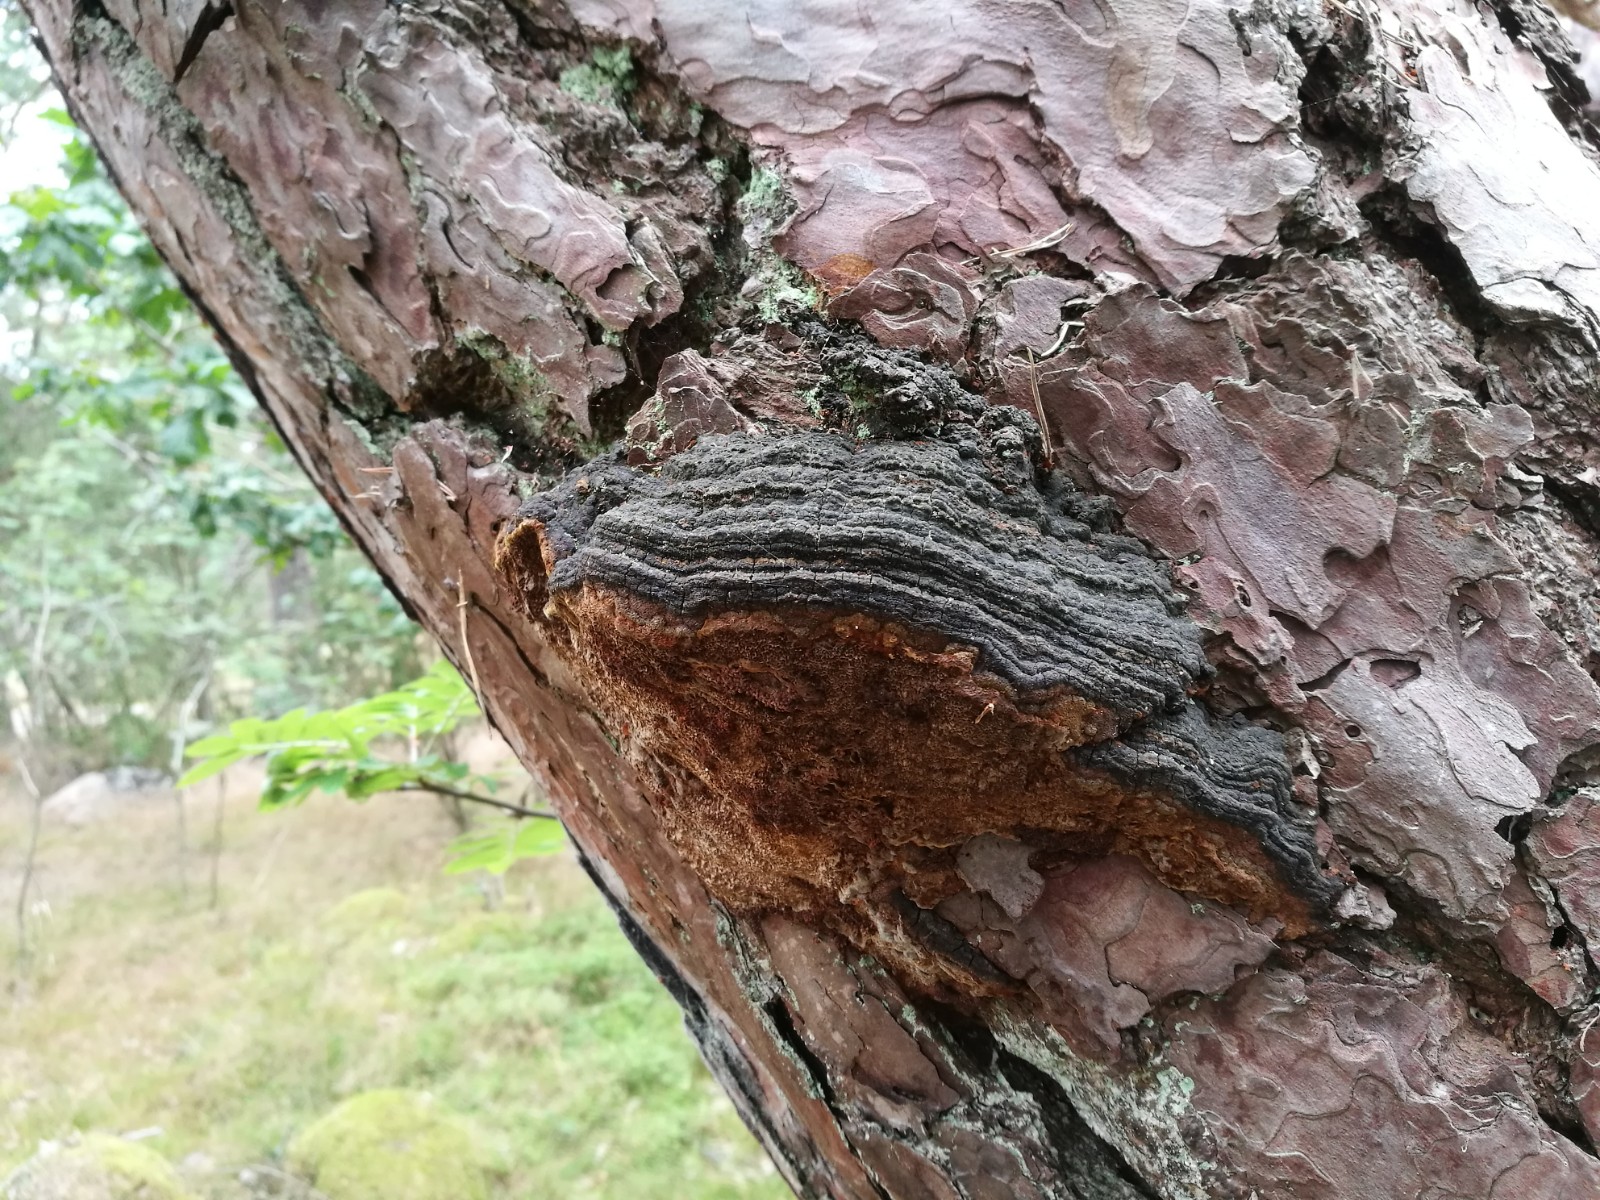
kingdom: Fungi
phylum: Basidiomycota
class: Agaricomycetes
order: Hymenochaetales
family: Hymenochaetaceae
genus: Porodaedalea
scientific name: Porodaedalea pini
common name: fyrre-ildporesvamp
